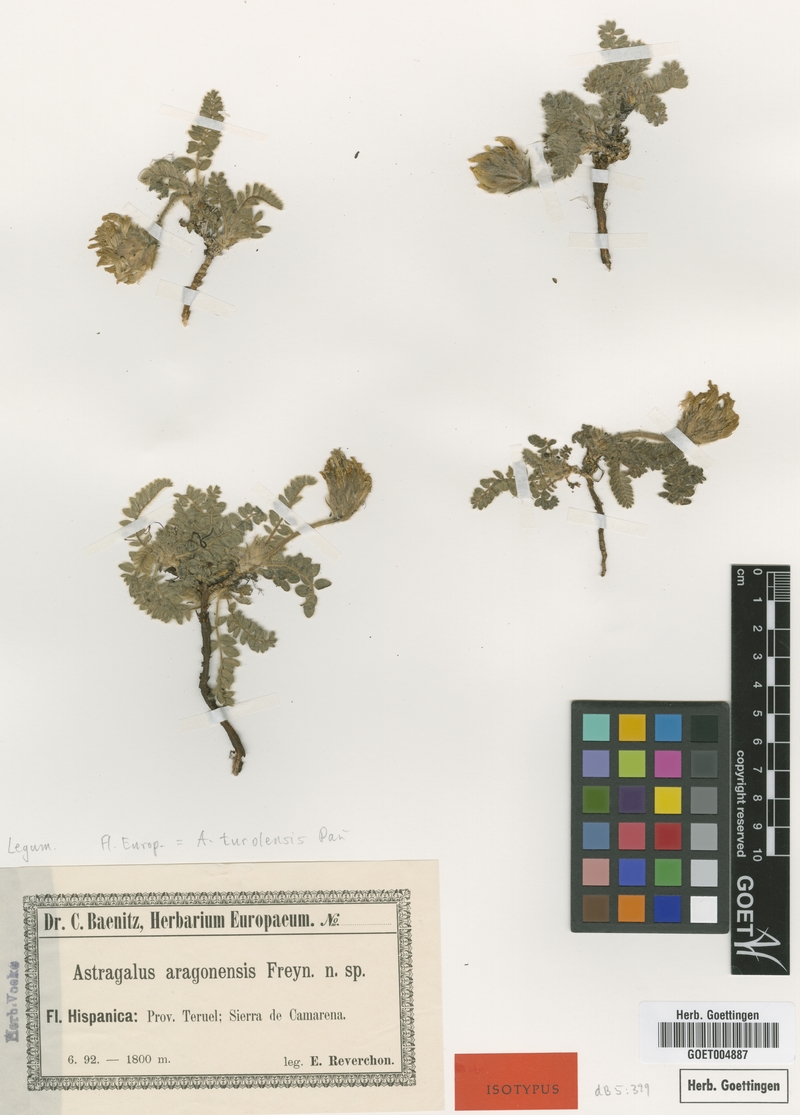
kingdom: Plantae
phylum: Tracheophyta
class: Magnoliopsida
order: Fabales
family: Fabaceae
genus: Astragalus
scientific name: Astragalus turolensis
